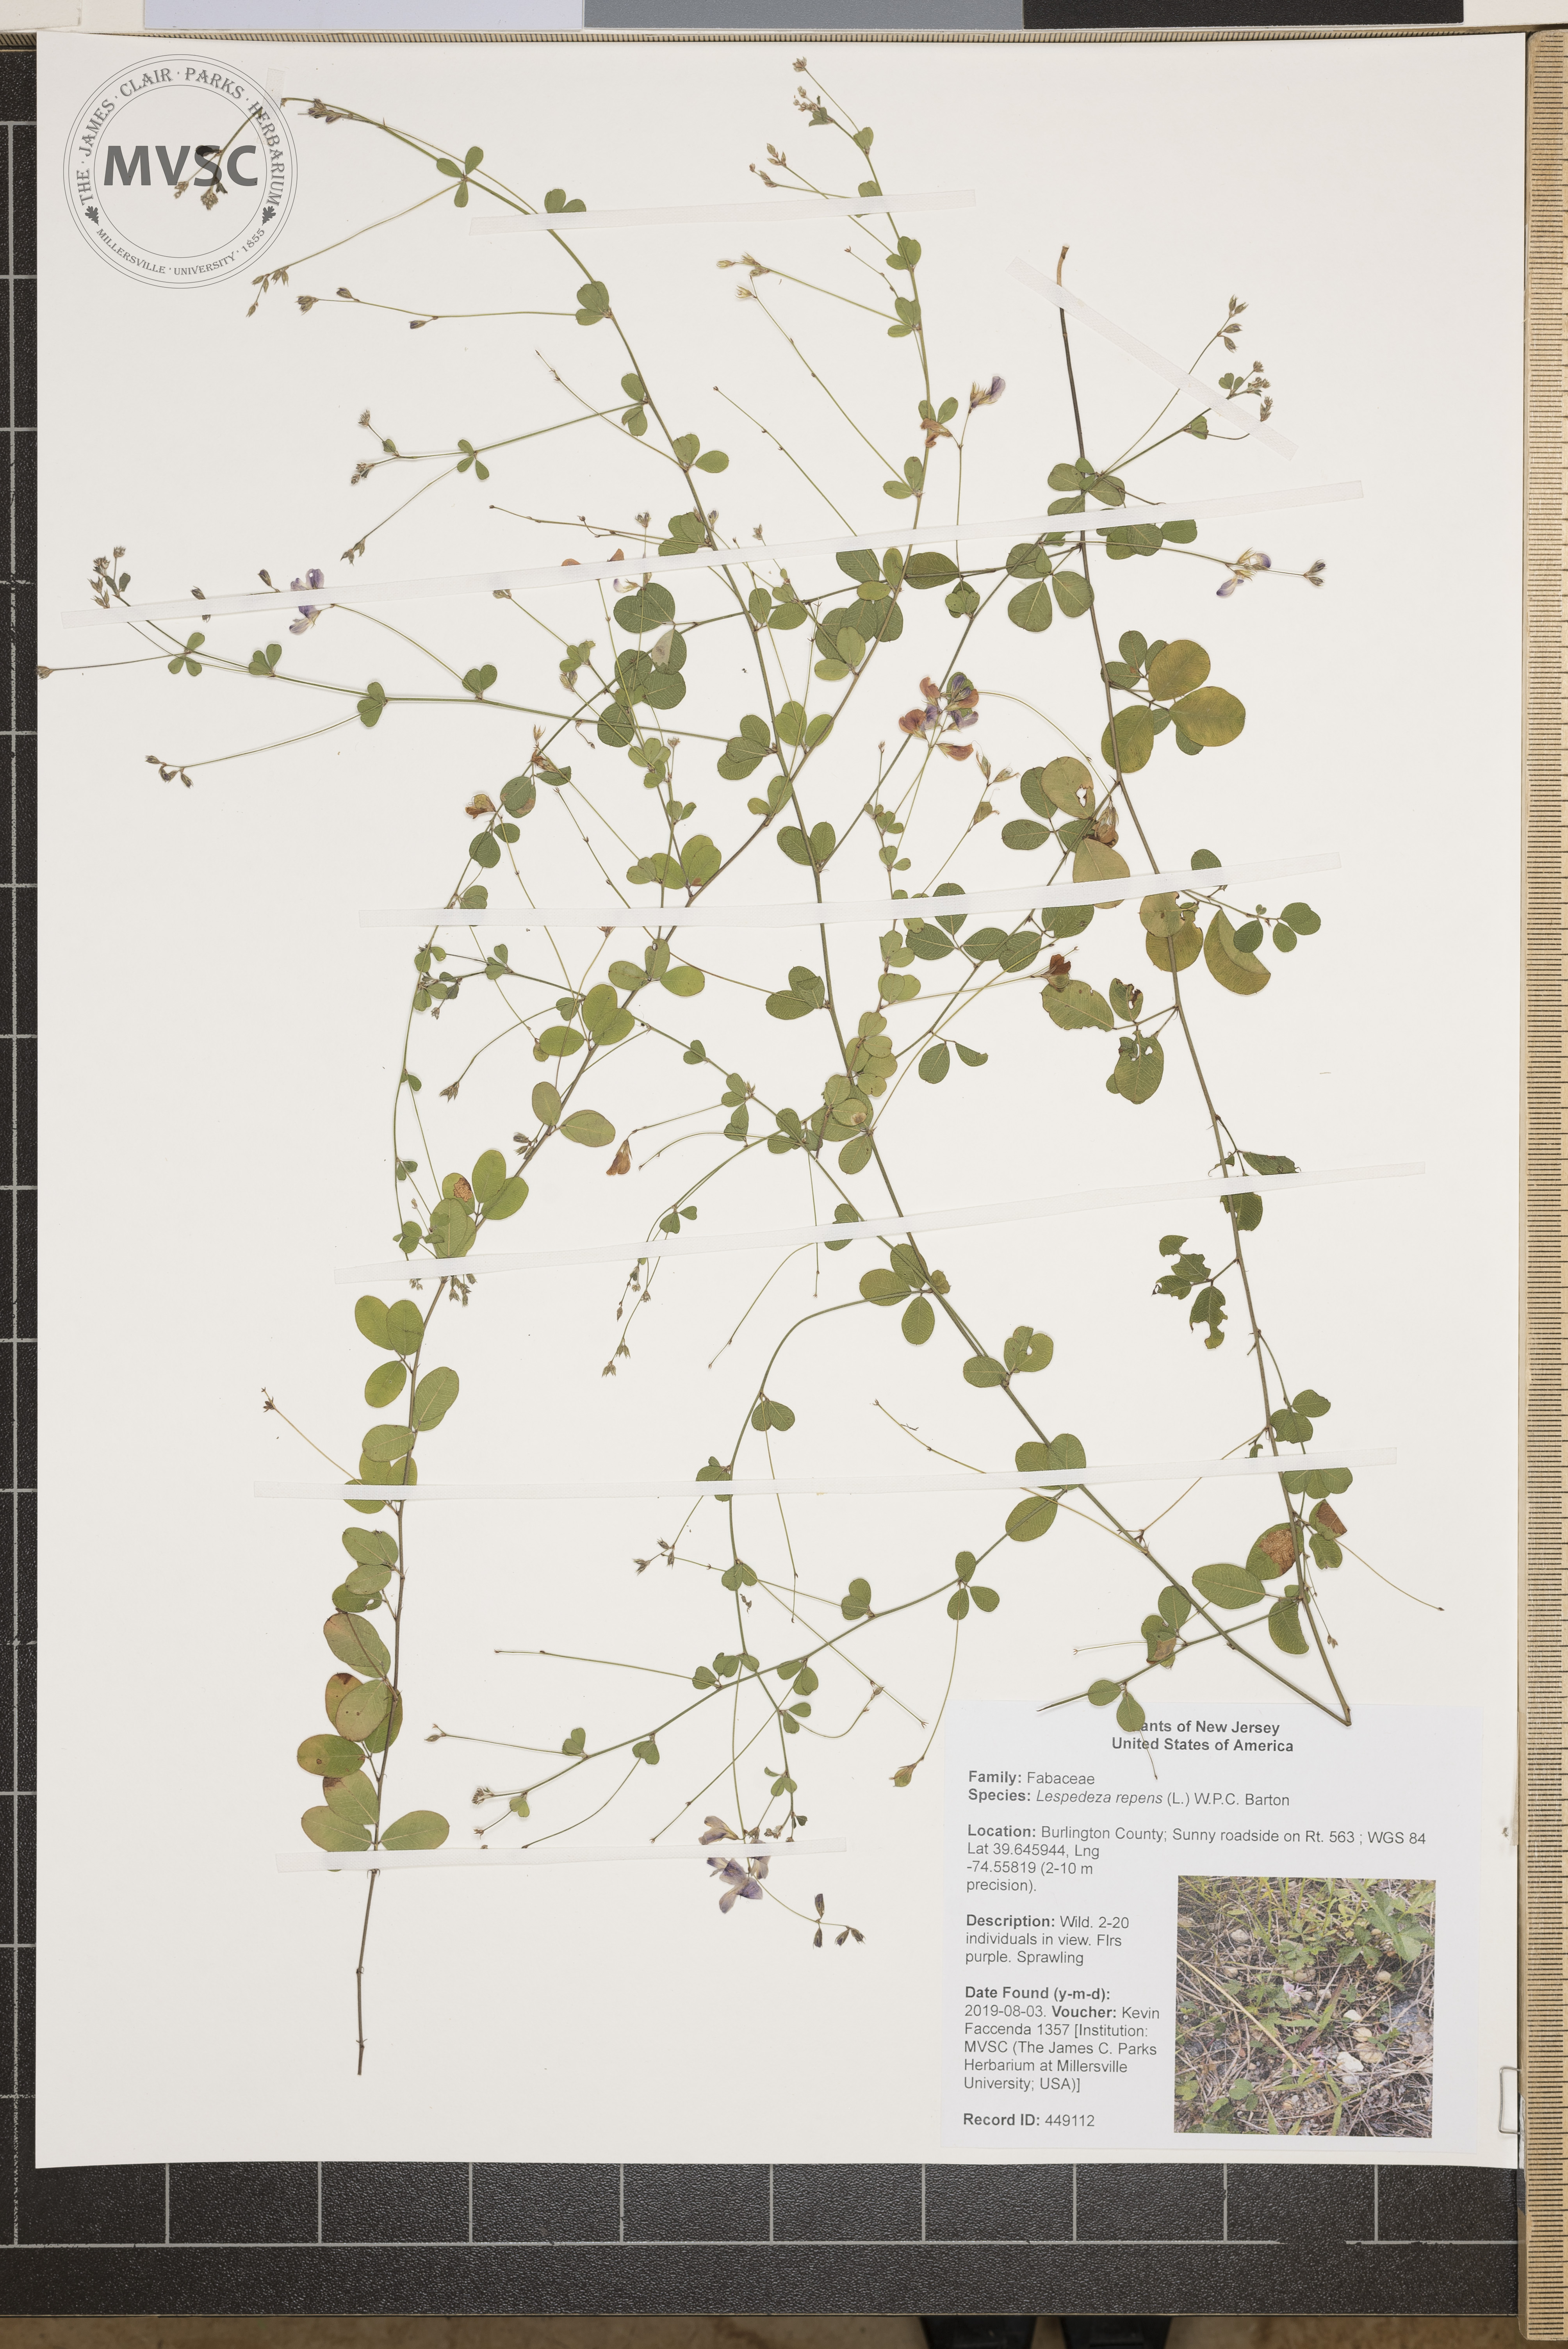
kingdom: Plantae
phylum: Tracheophyta
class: Magnoliopsida
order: Fabales
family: Fabaceae
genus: Lespedeza
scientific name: Lespedeza repens
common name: Creeping bush-clover
